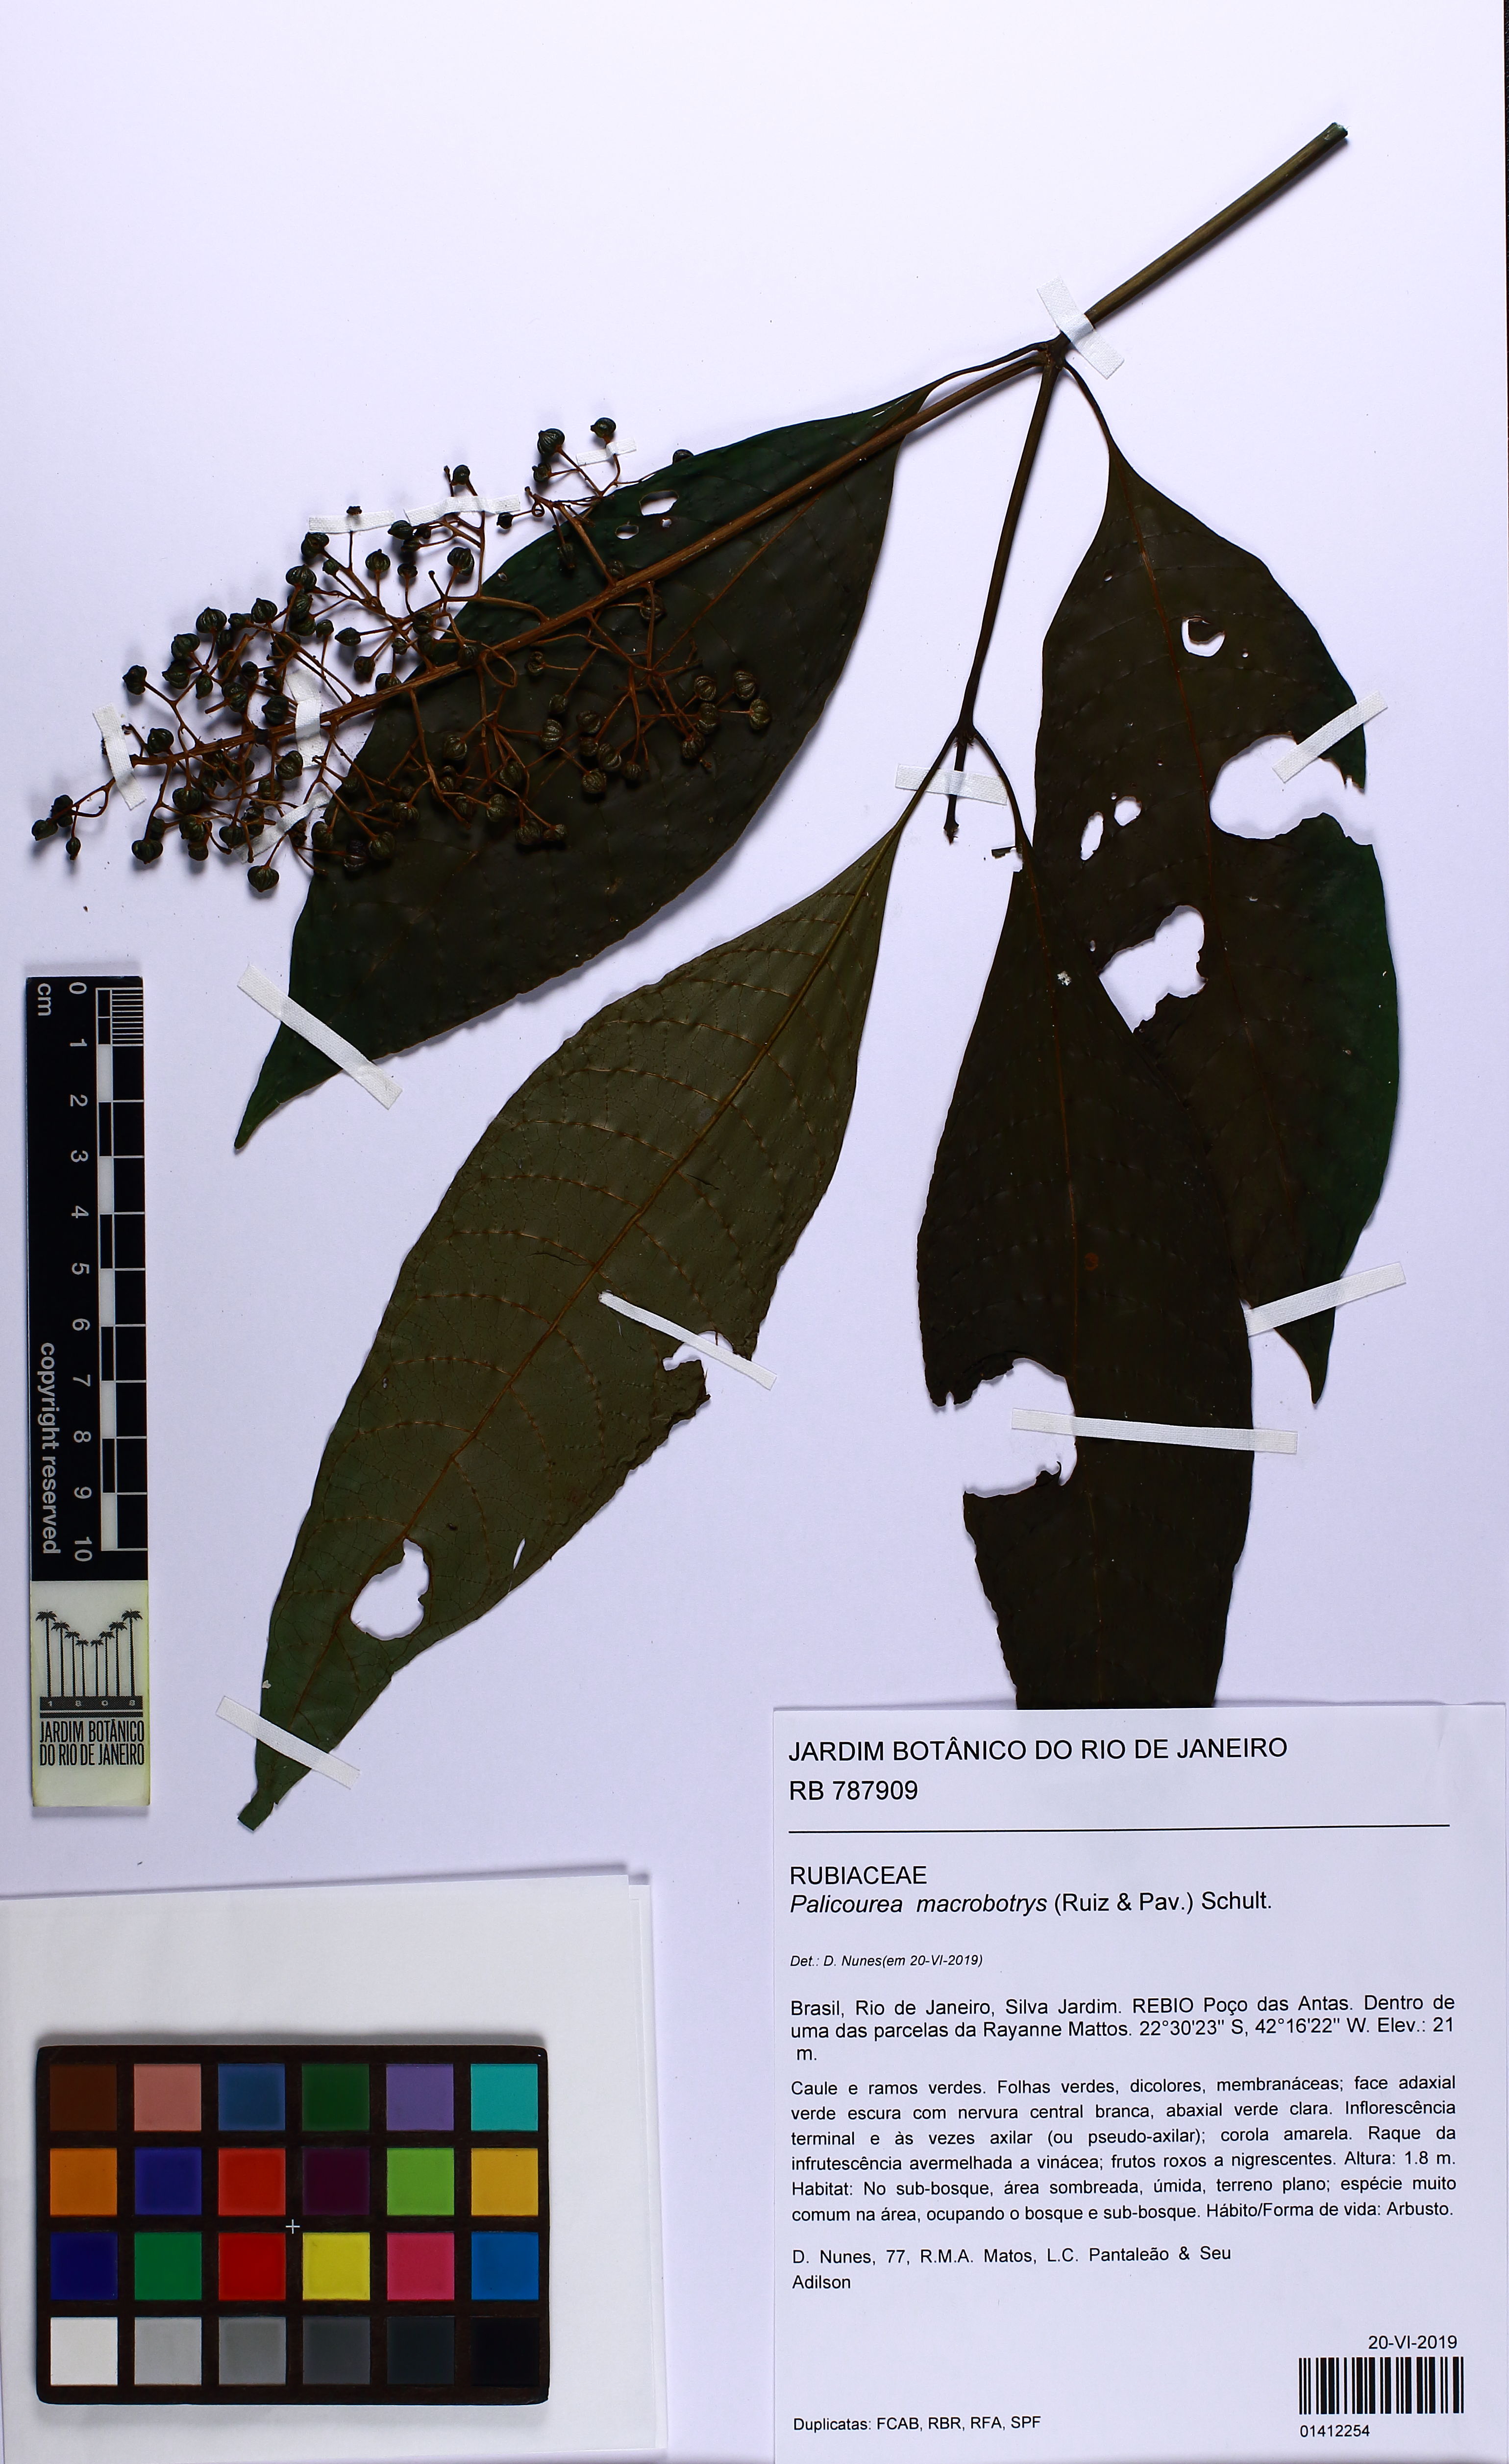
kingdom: Plantae
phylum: Tracheophyta
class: Magnoliopsida
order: Gentianales
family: Rubiaceae
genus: Palicourea
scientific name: Palicourea macrobotrys
